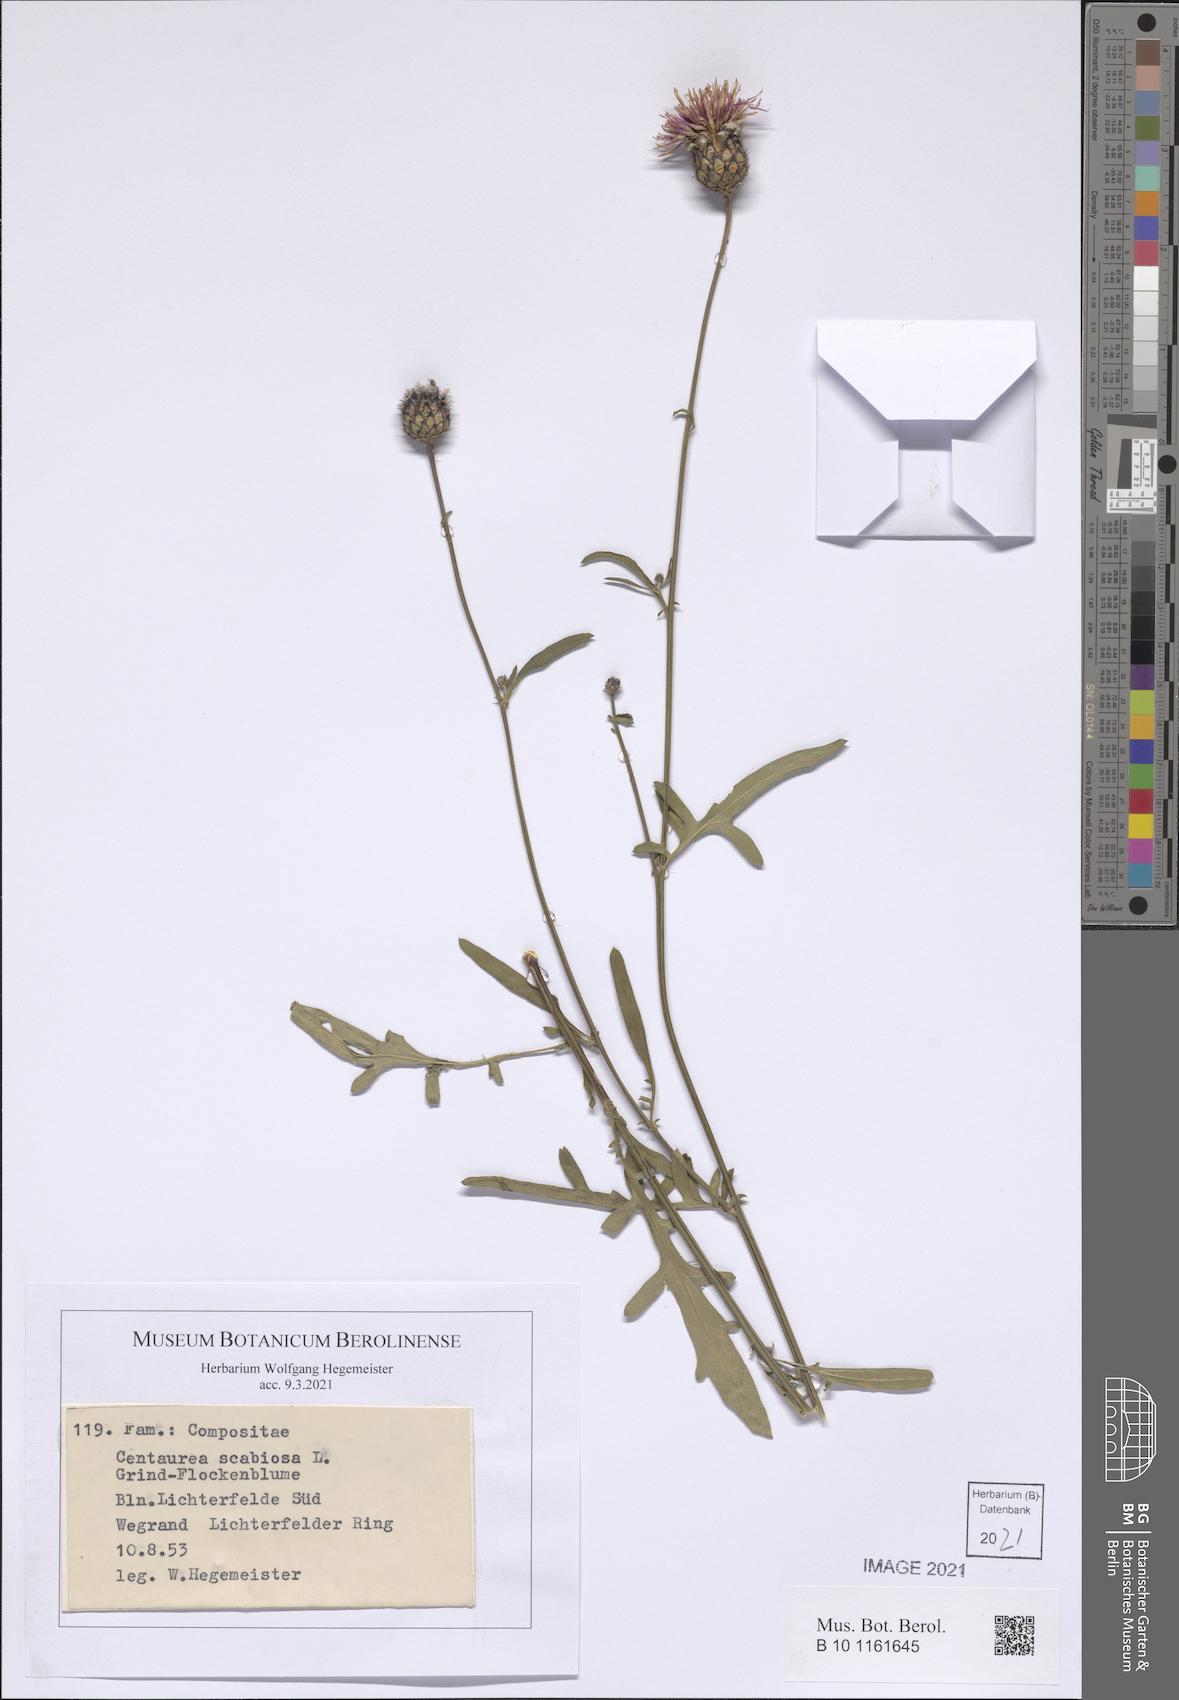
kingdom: Plantae
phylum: Tracheophyta
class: Magnoliopsida
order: Asterales
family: Asteraceae
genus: Centaurea
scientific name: Centaurea scabiosa
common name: Greater knapweed
